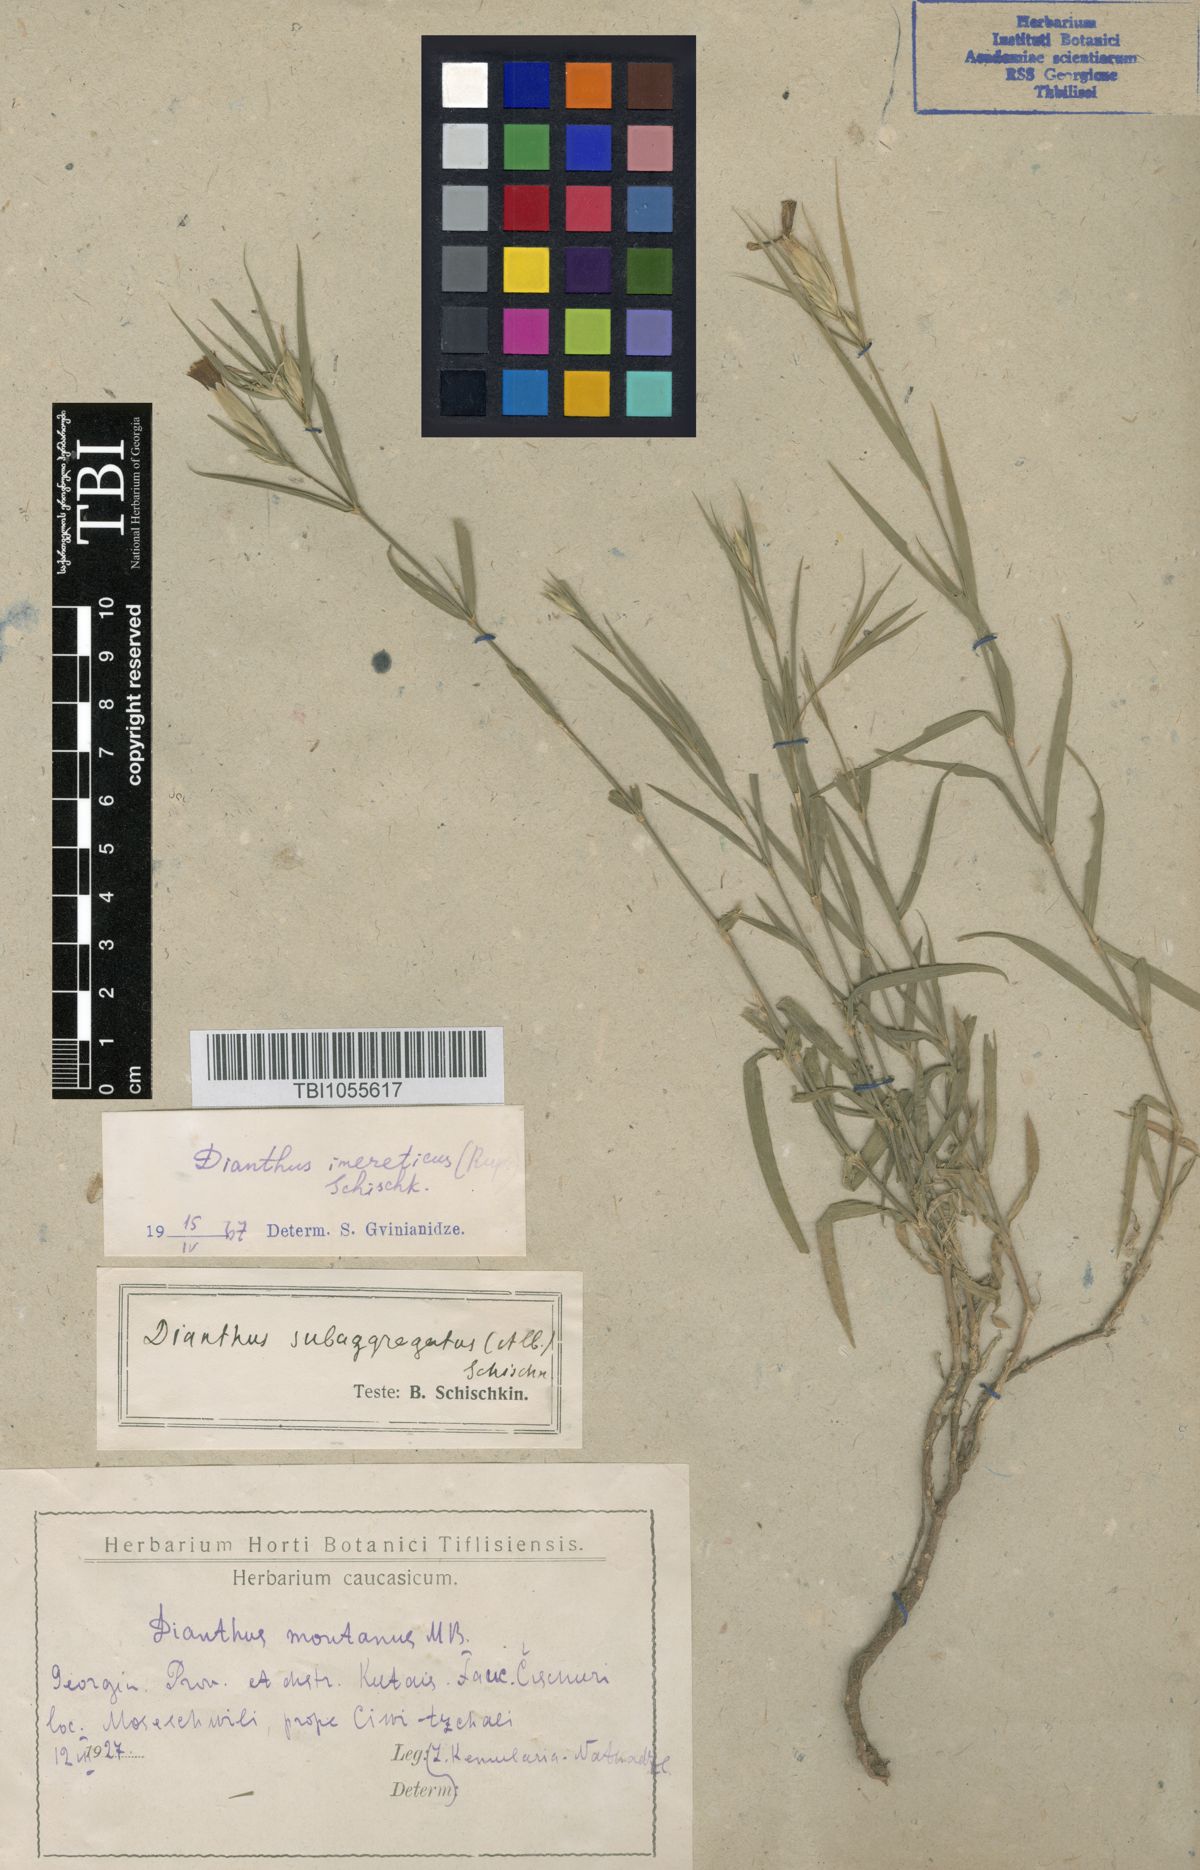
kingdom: Plantae
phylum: Tracheophyta
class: Magnoliopsida
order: Caryophyllales
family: Caryophyllaceae
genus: Dianthus
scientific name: Dianthus imereticus
